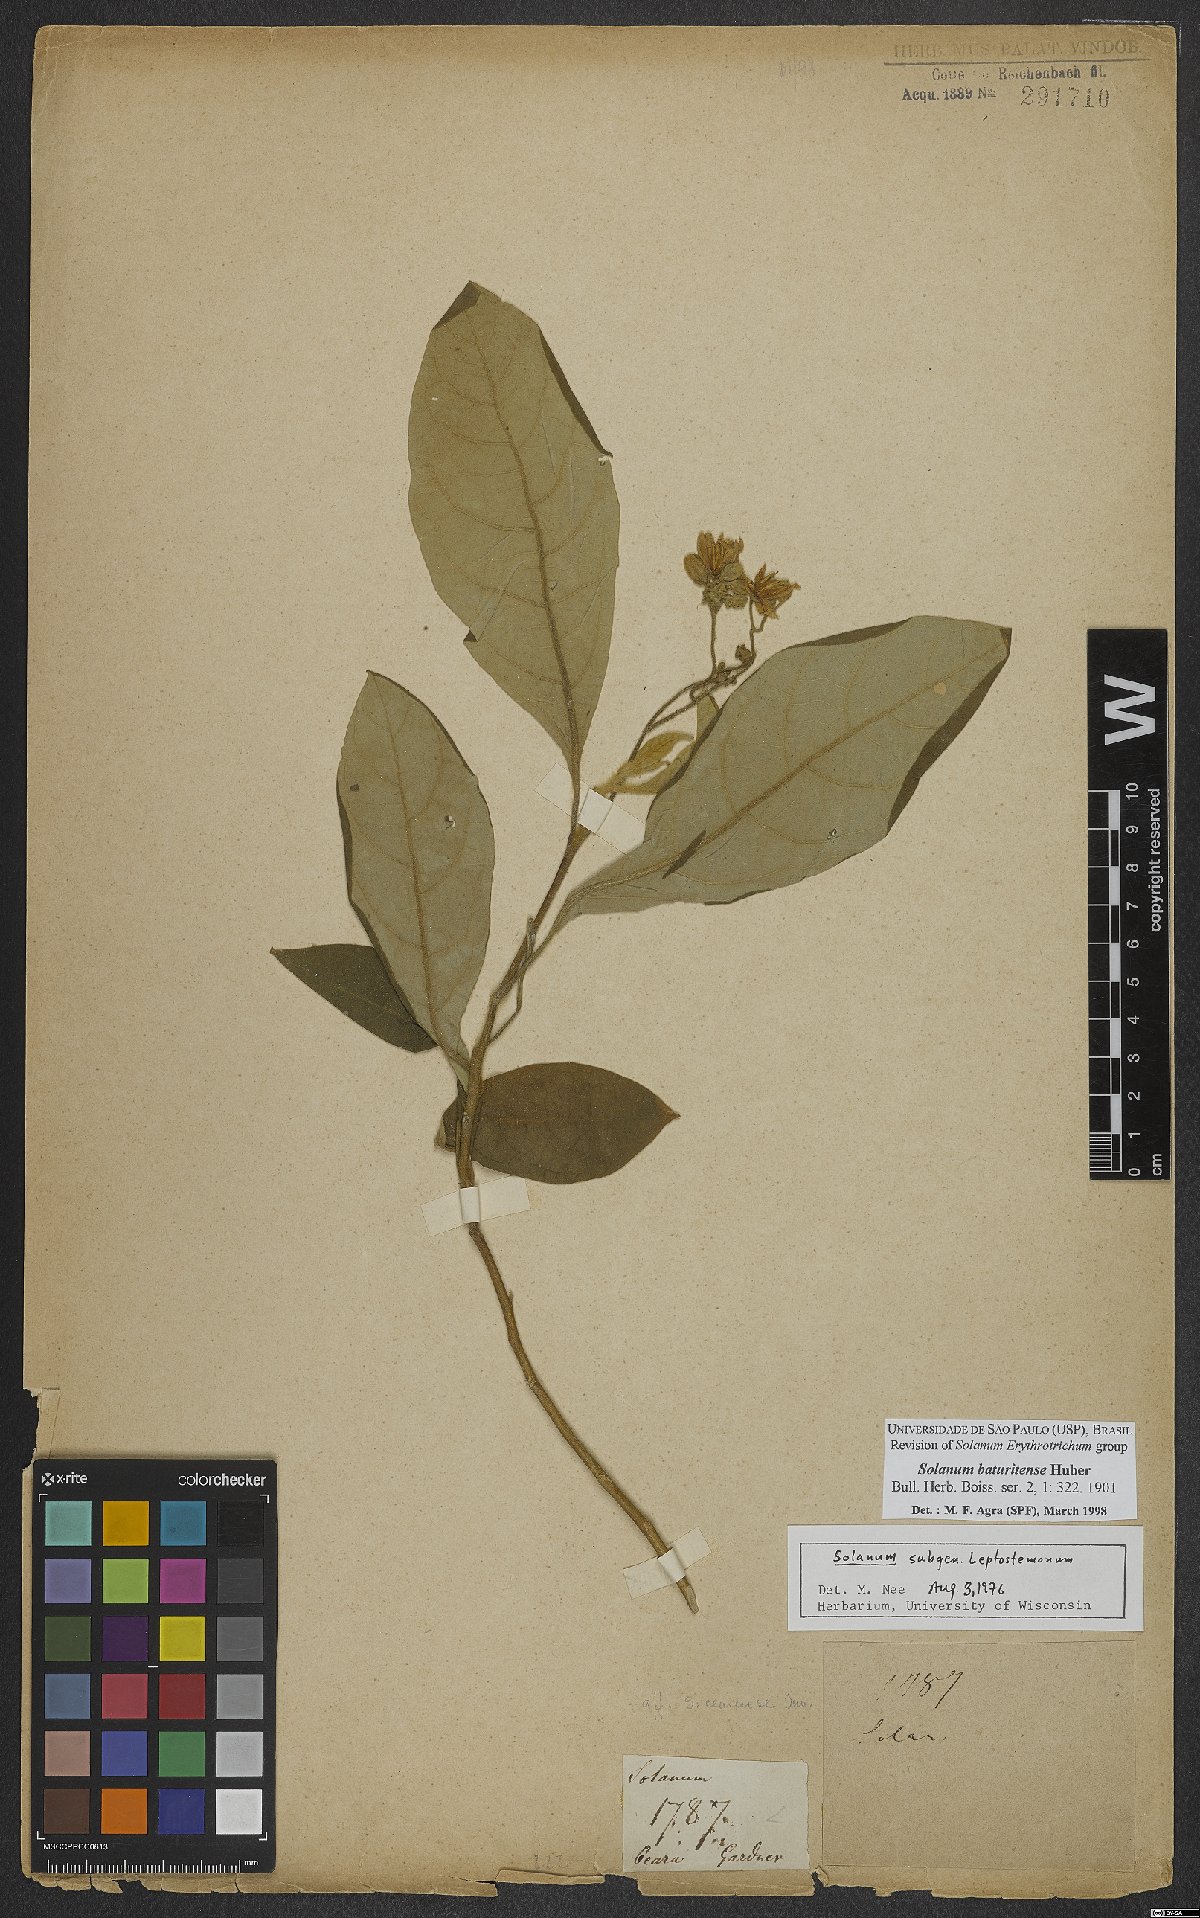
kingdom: Plantae
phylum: Tracheophyta
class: Magnoliopsida
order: Solanales
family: Solanaceae
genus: Solanum
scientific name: Solanum rhytidoandrum
